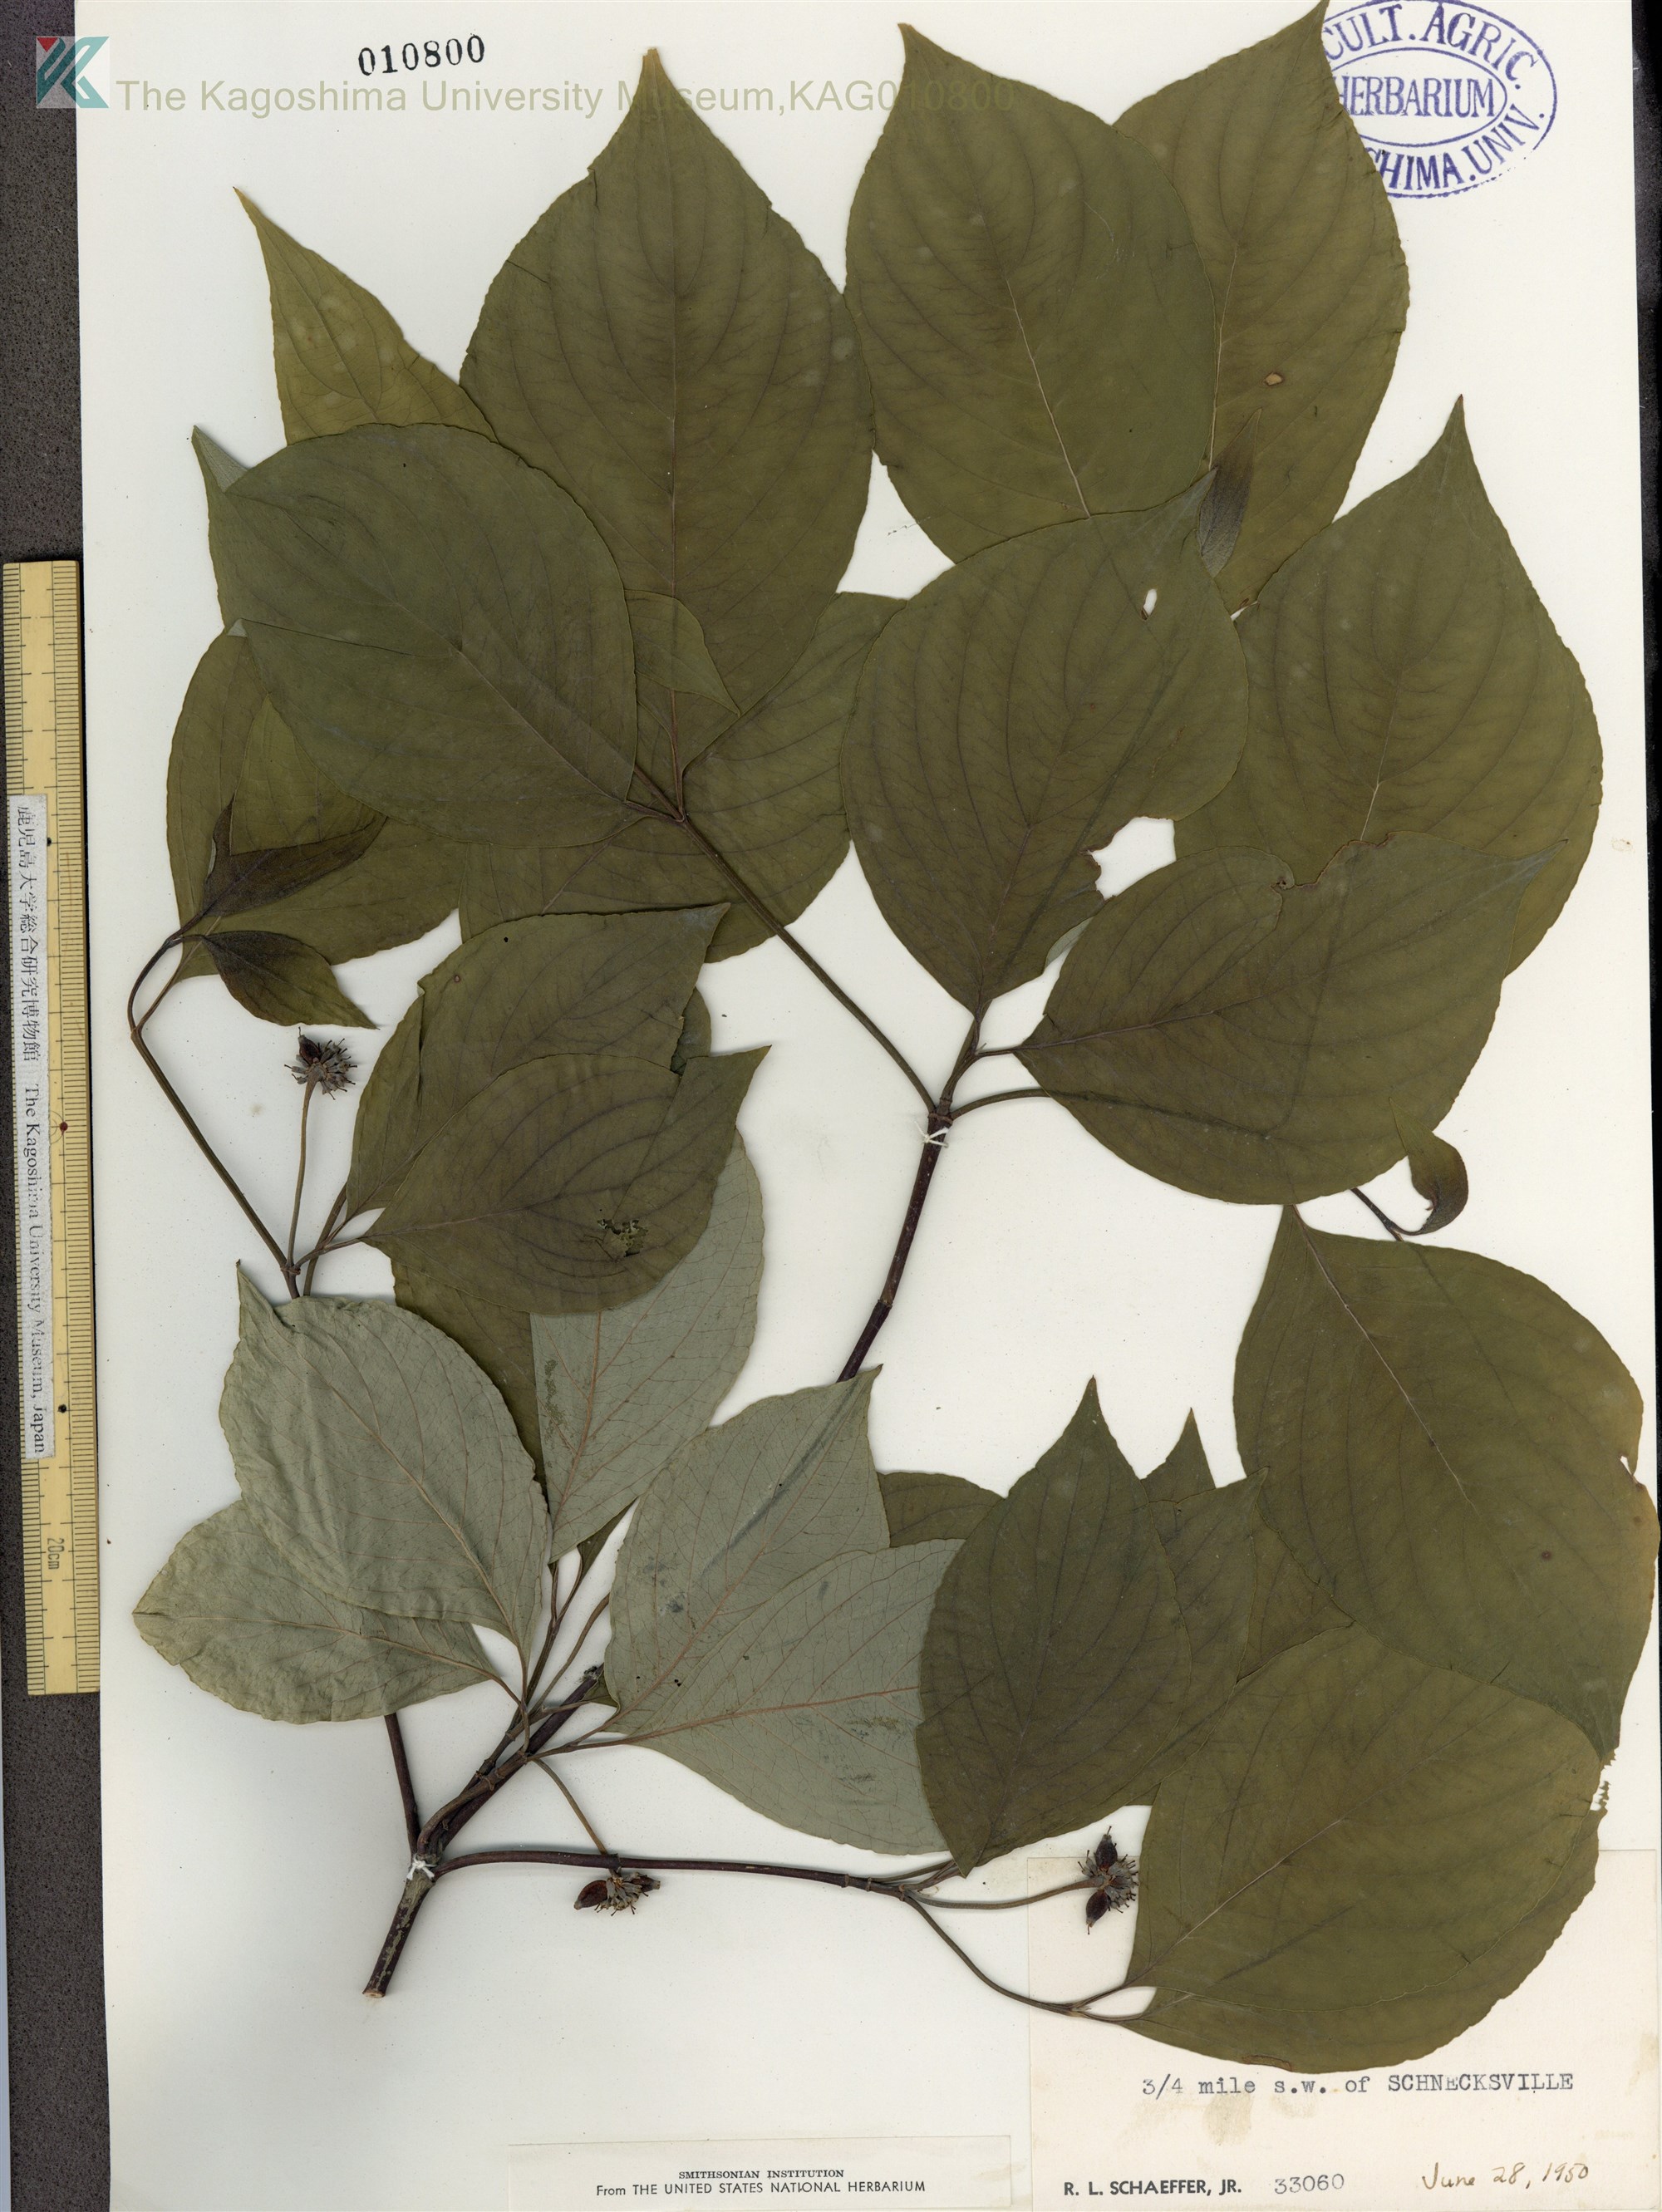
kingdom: Plantae
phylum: Tracheophyta
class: Magnoliopsida
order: Cornales
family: Cornaceae
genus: Cornus
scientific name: Cornus florida
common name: Flowering dogwood
